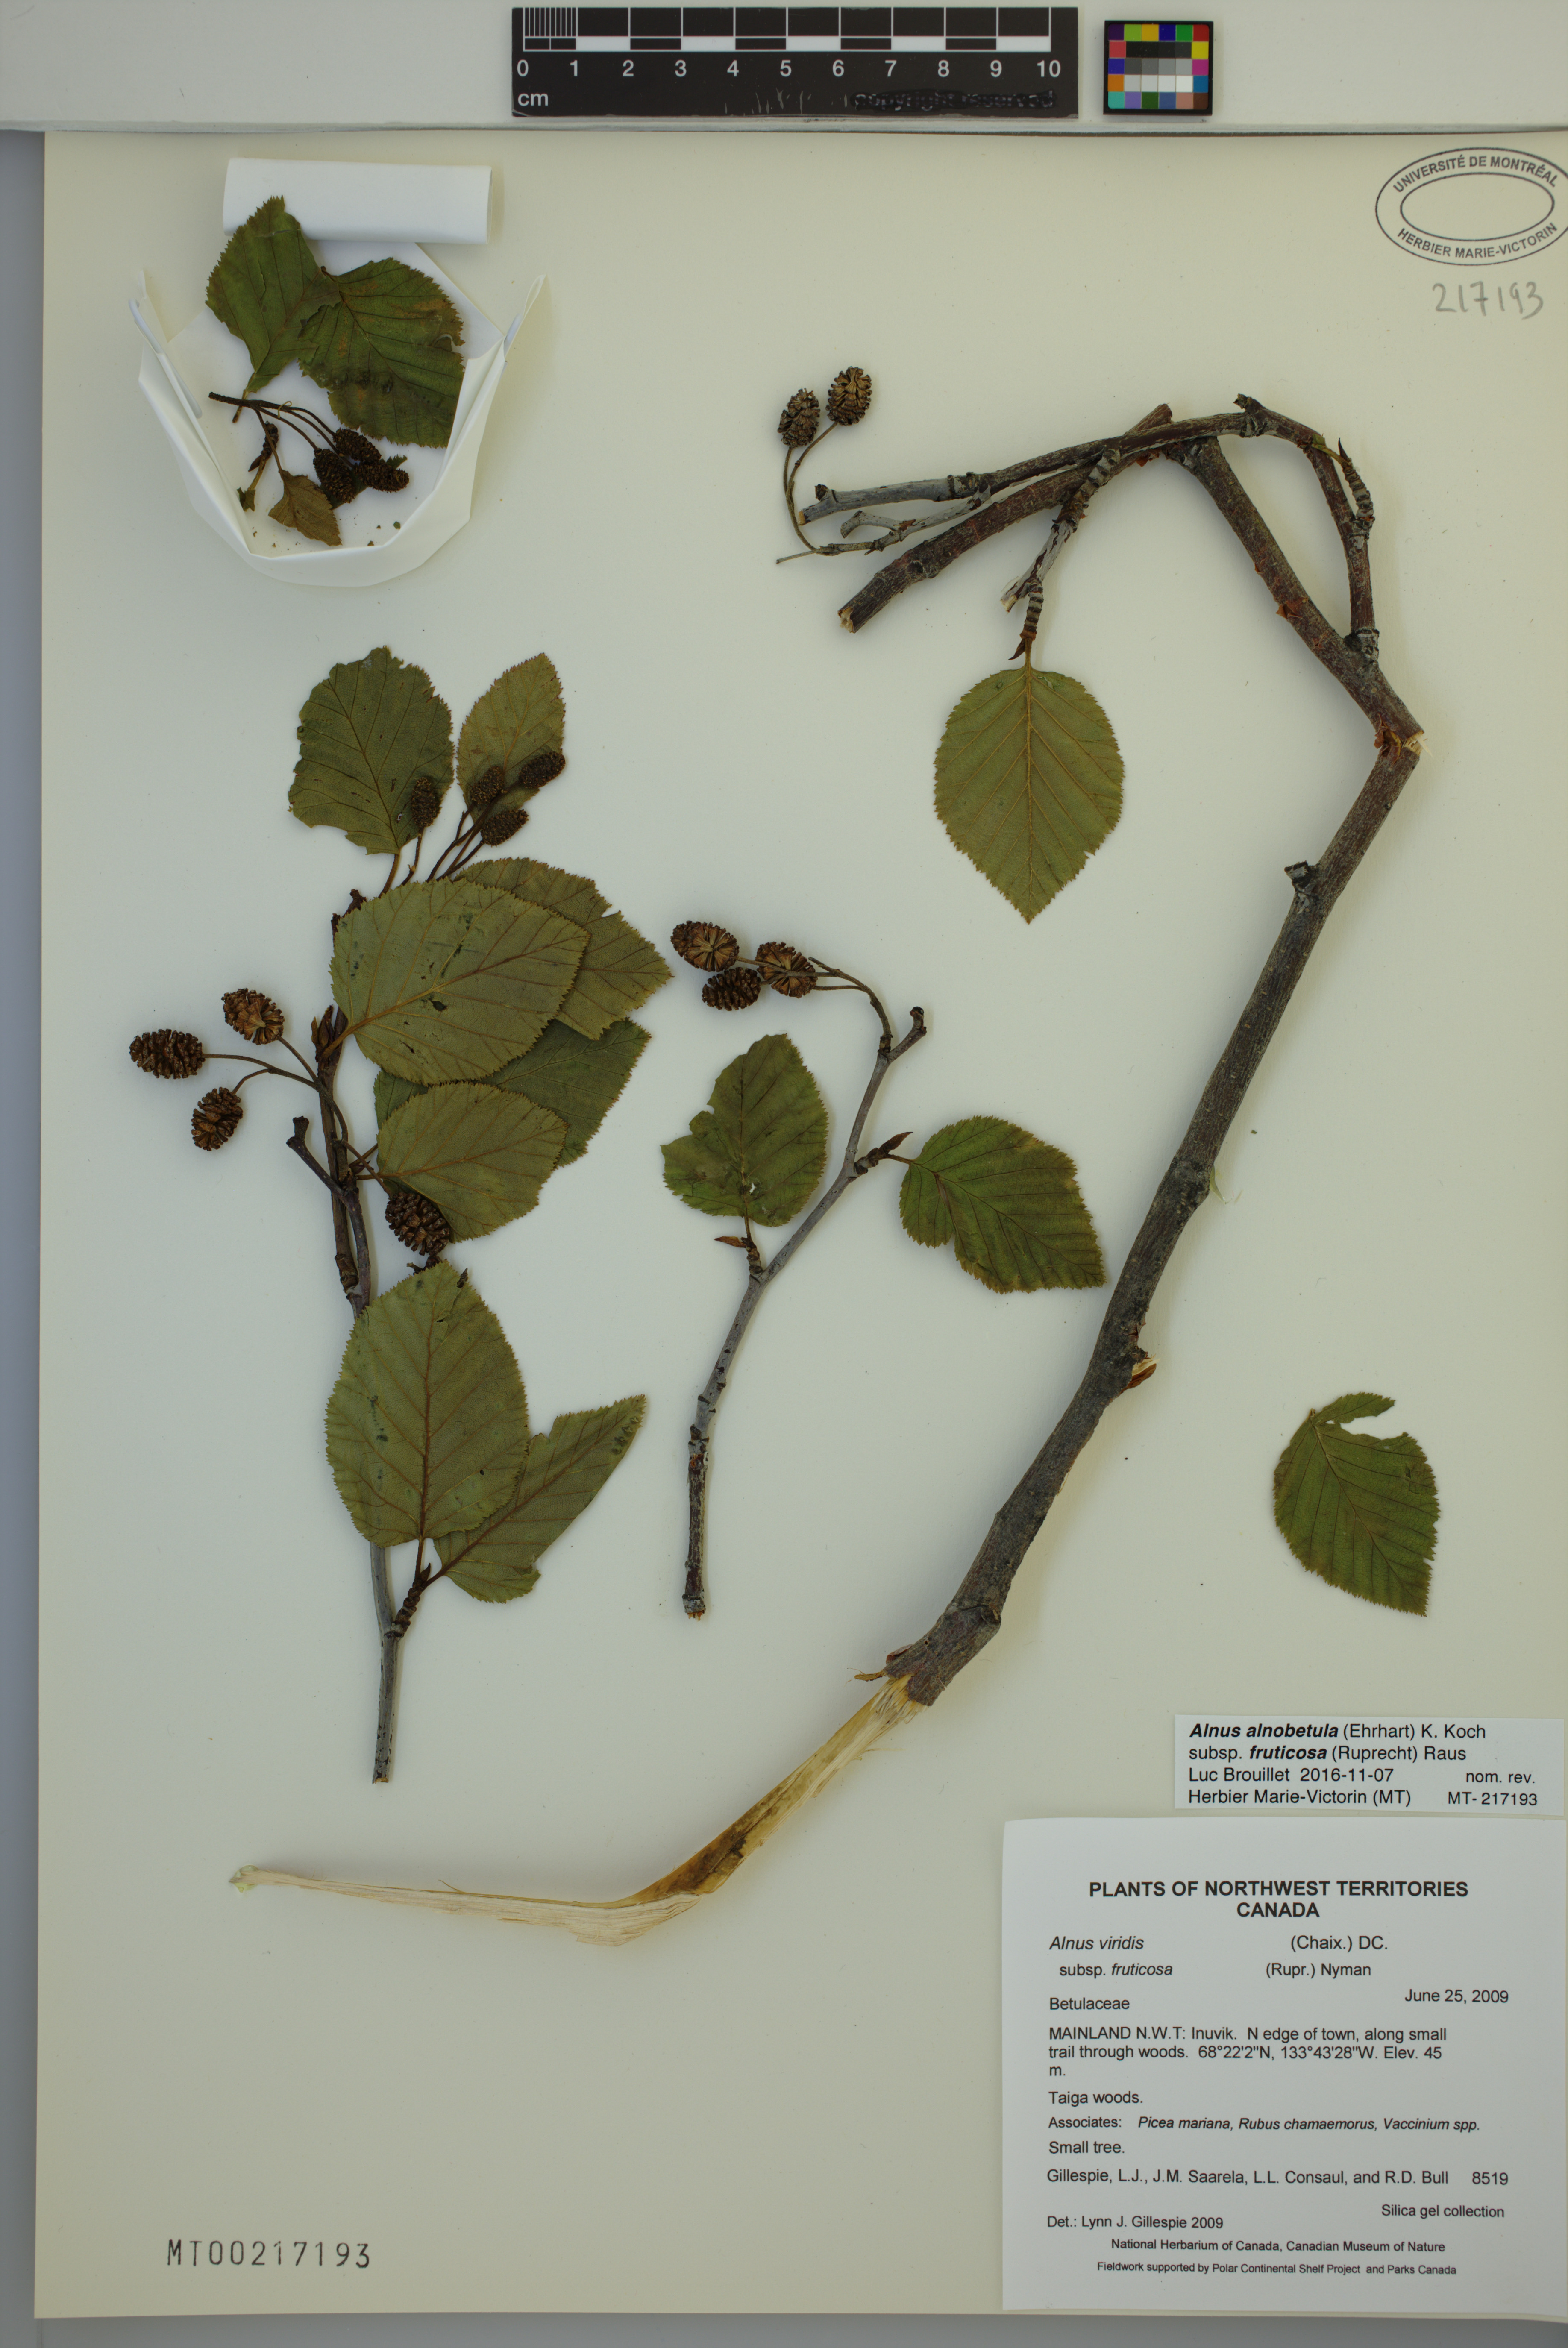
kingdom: Plantae
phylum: Tracheophyta
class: Magnoliopsida
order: Fagales
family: Betulaceae
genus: Alnus
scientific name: Alnus alnobetula
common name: Green alder
